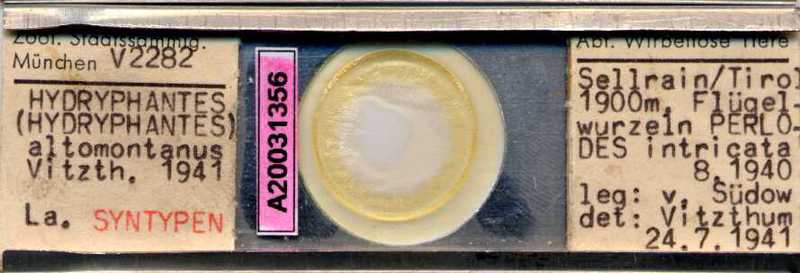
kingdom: Animalia
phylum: Arthropoda
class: Arachnida
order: Trombidiformes
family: Hydryphantidae
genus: Hydryphantes
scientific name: Hydryphantes
